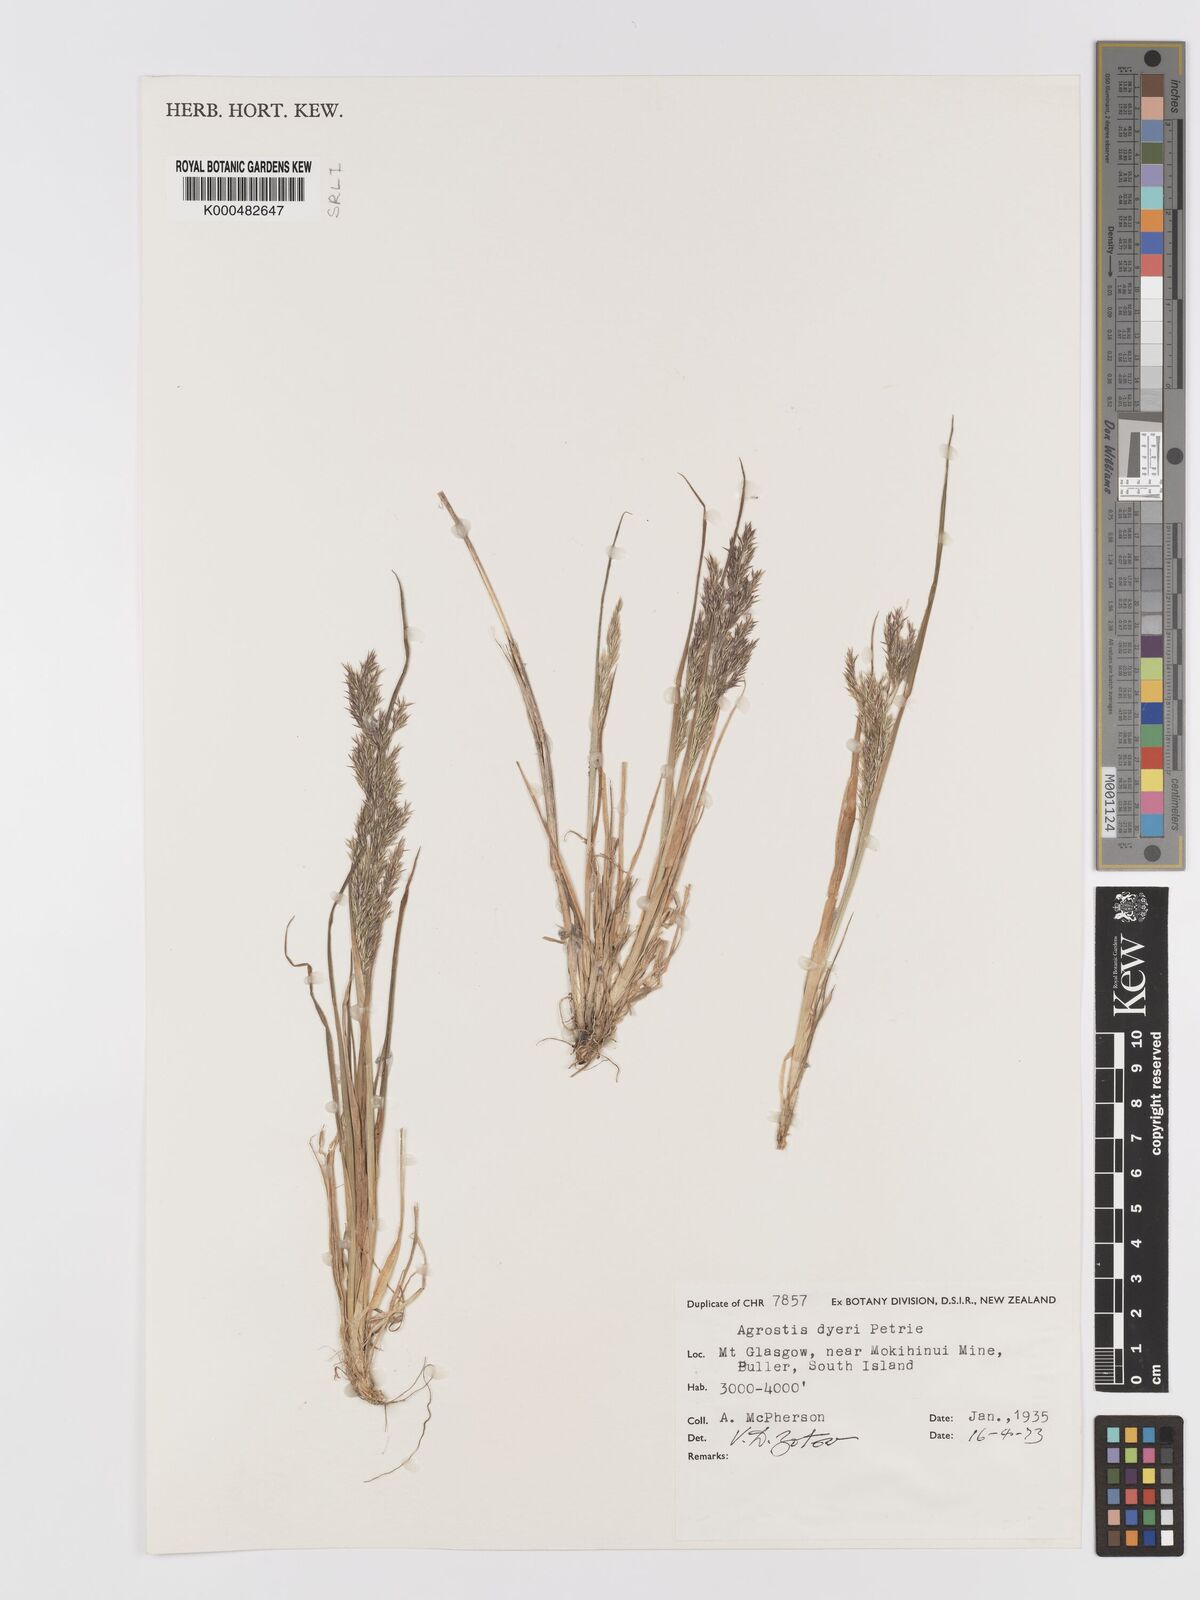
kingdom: Plantae
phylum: Tracheophyta
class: Liliopsida
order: Poales
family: Poaceae
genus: Agrostis
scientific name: Agrostis dyeri
